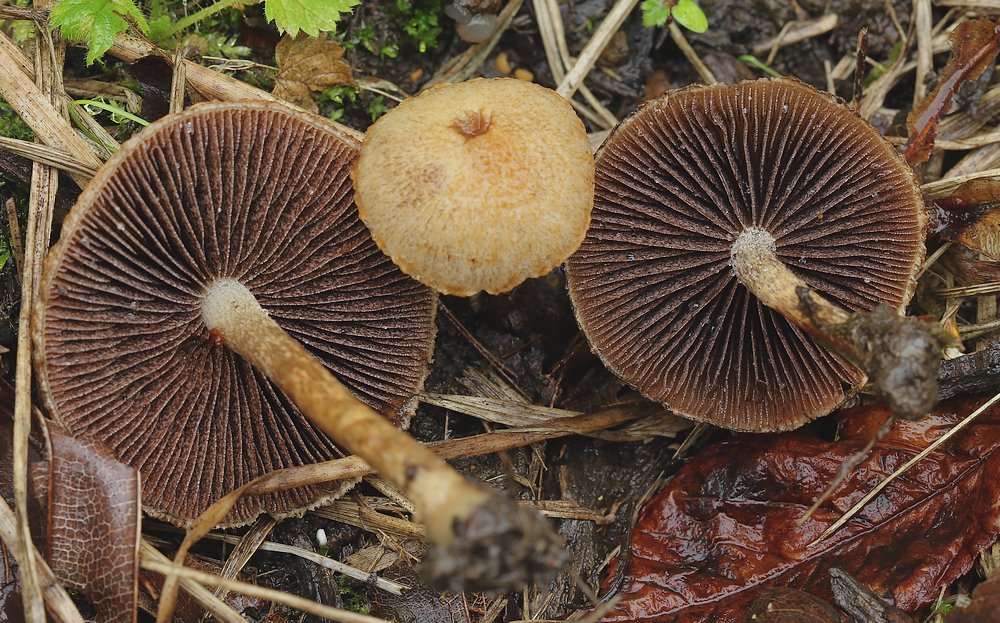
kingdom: Fungi
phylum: Basidiomycota
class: Agaricomycetes
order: Agaricales
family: Psathyrellaceae
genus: Lacrymaria
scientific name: Lacrymaria lacrymabunda
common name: grædende mørkhat
